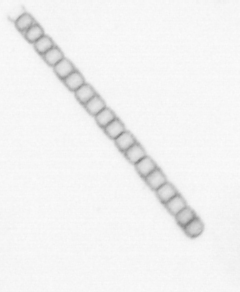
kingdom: Chromista
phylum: Ochrophyta
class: Bacillariophyceae
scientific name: Bacillariophyceae
